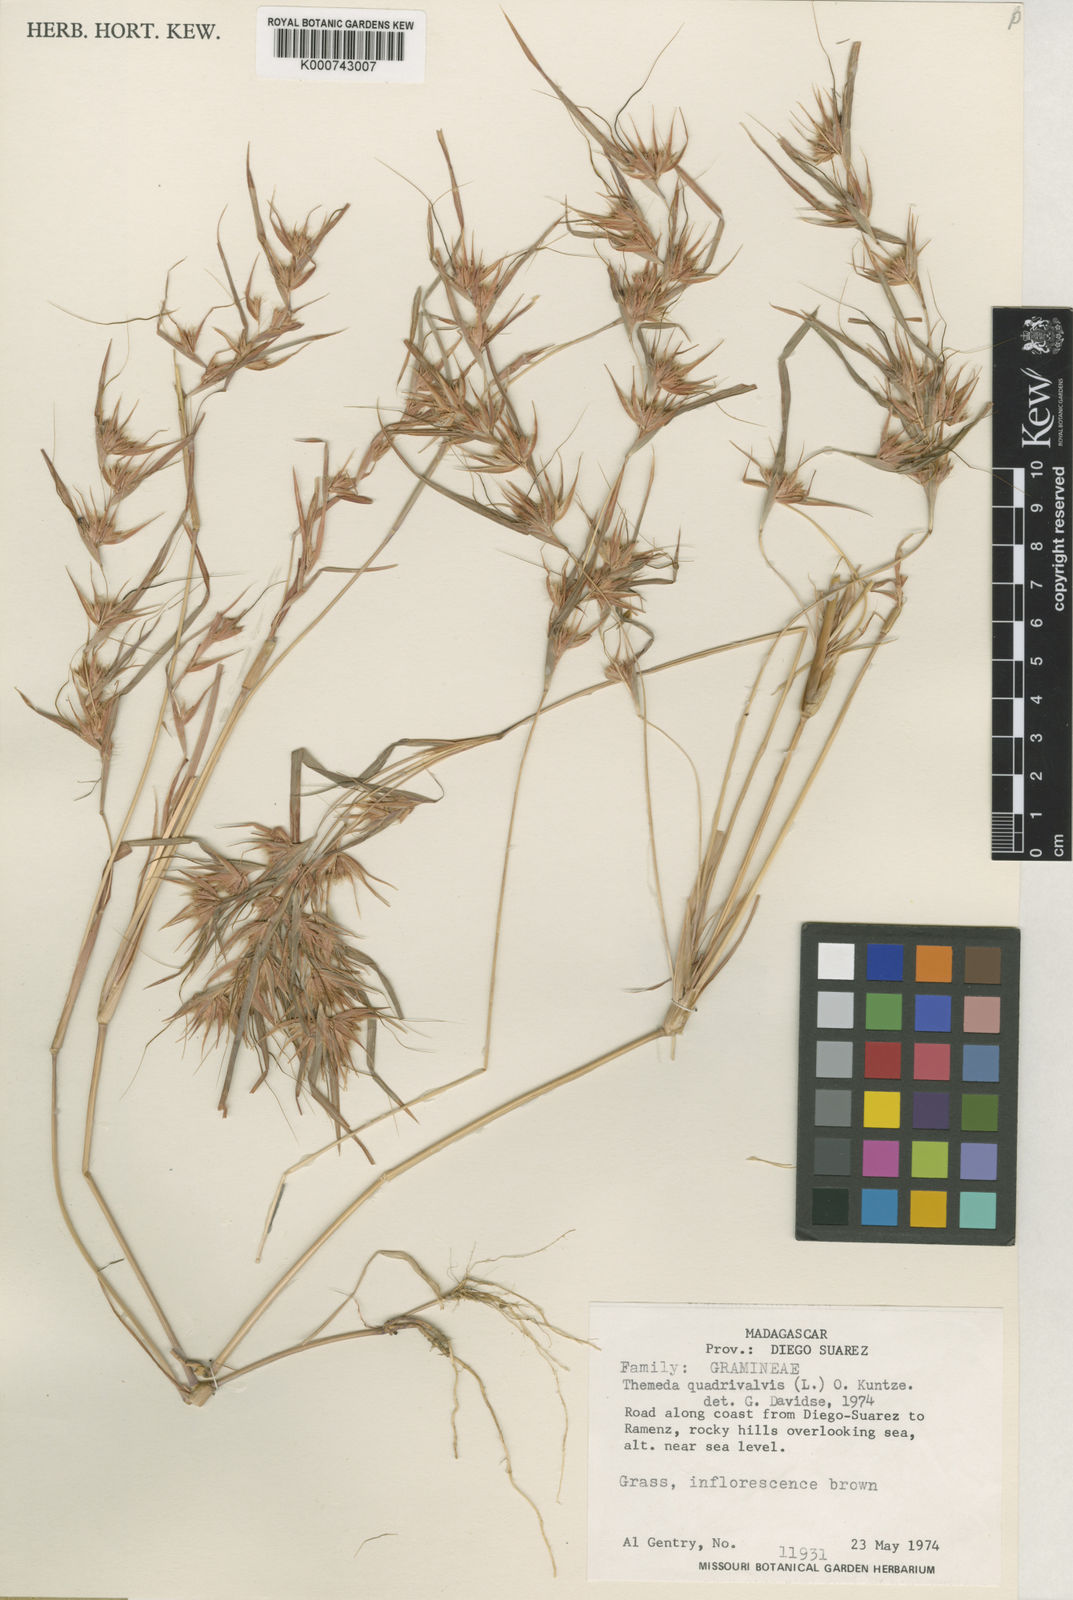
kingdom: Plantae
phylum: Tracheophyta
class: Liliopsida
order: Poales
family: Poaceae
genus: Themeda
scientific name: Themeda quadrivalvis
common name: Kangaroo grass
